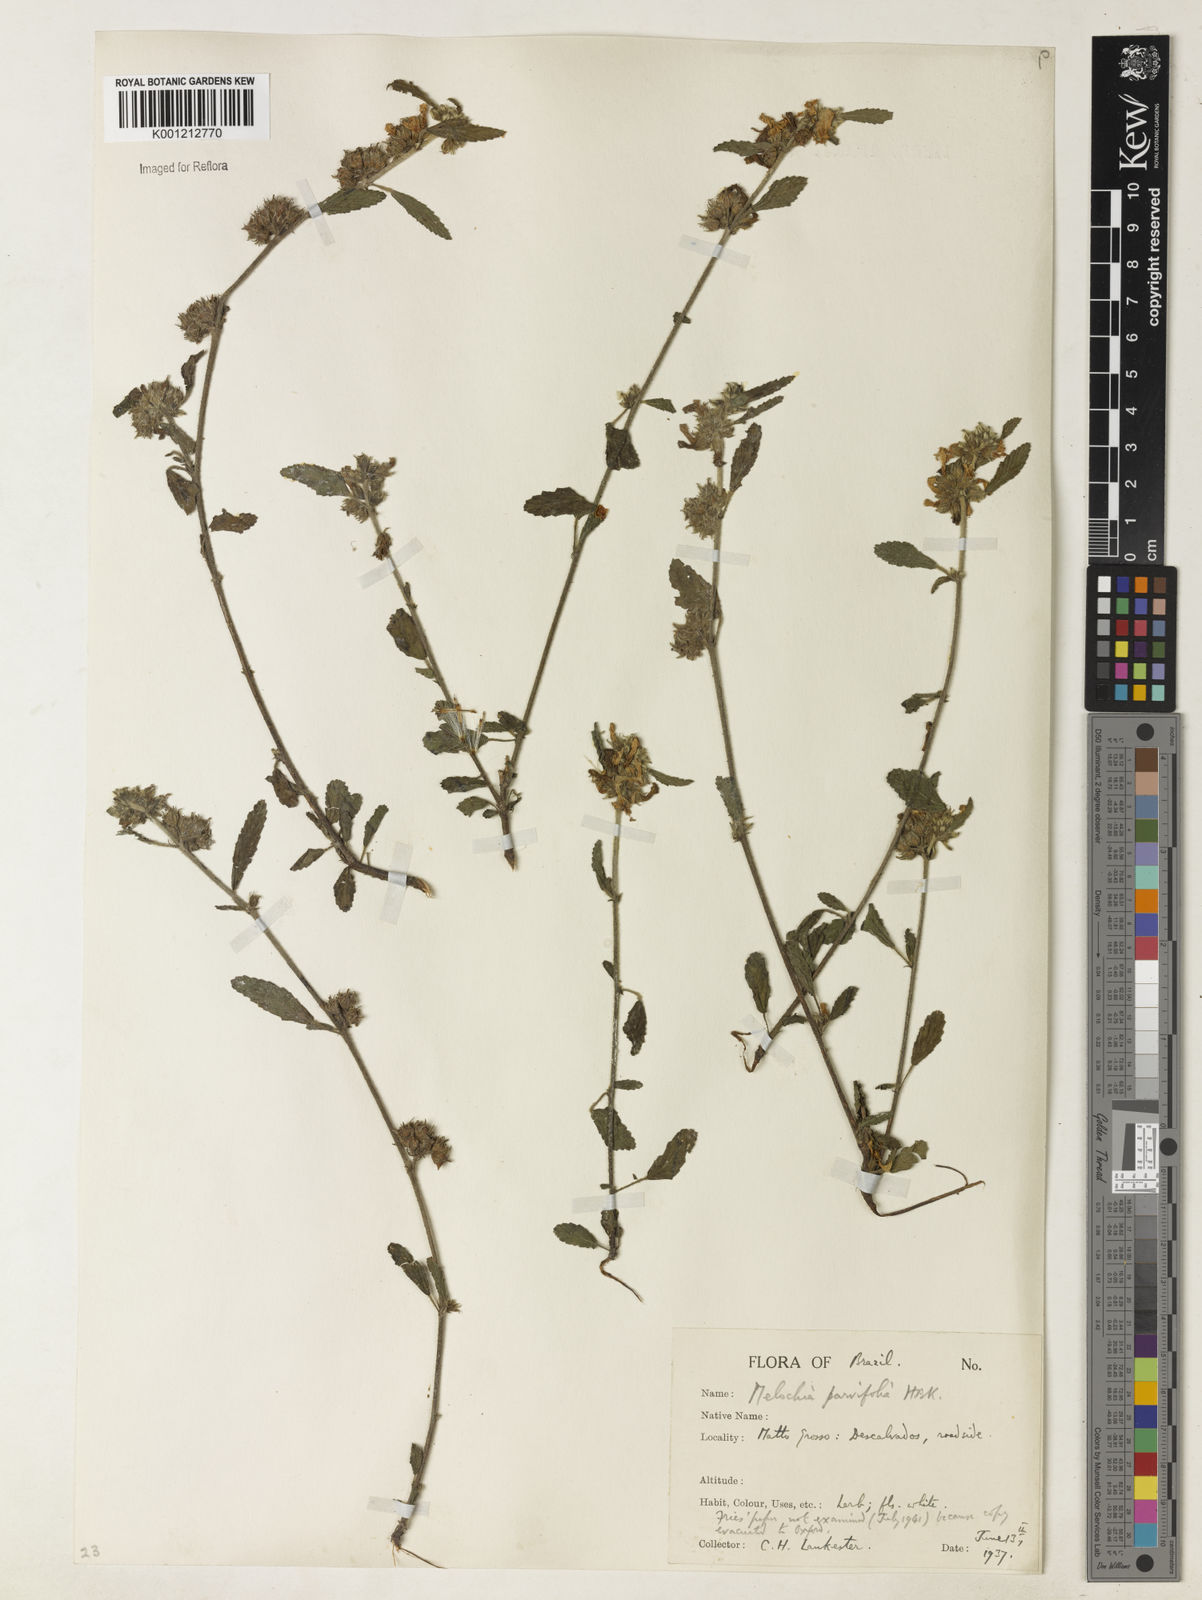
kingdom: Plantae
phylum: Tracheophyta
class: Magnoliopsida
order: Malvales
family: Malvaceae
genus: Melochia
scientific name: Melochia
